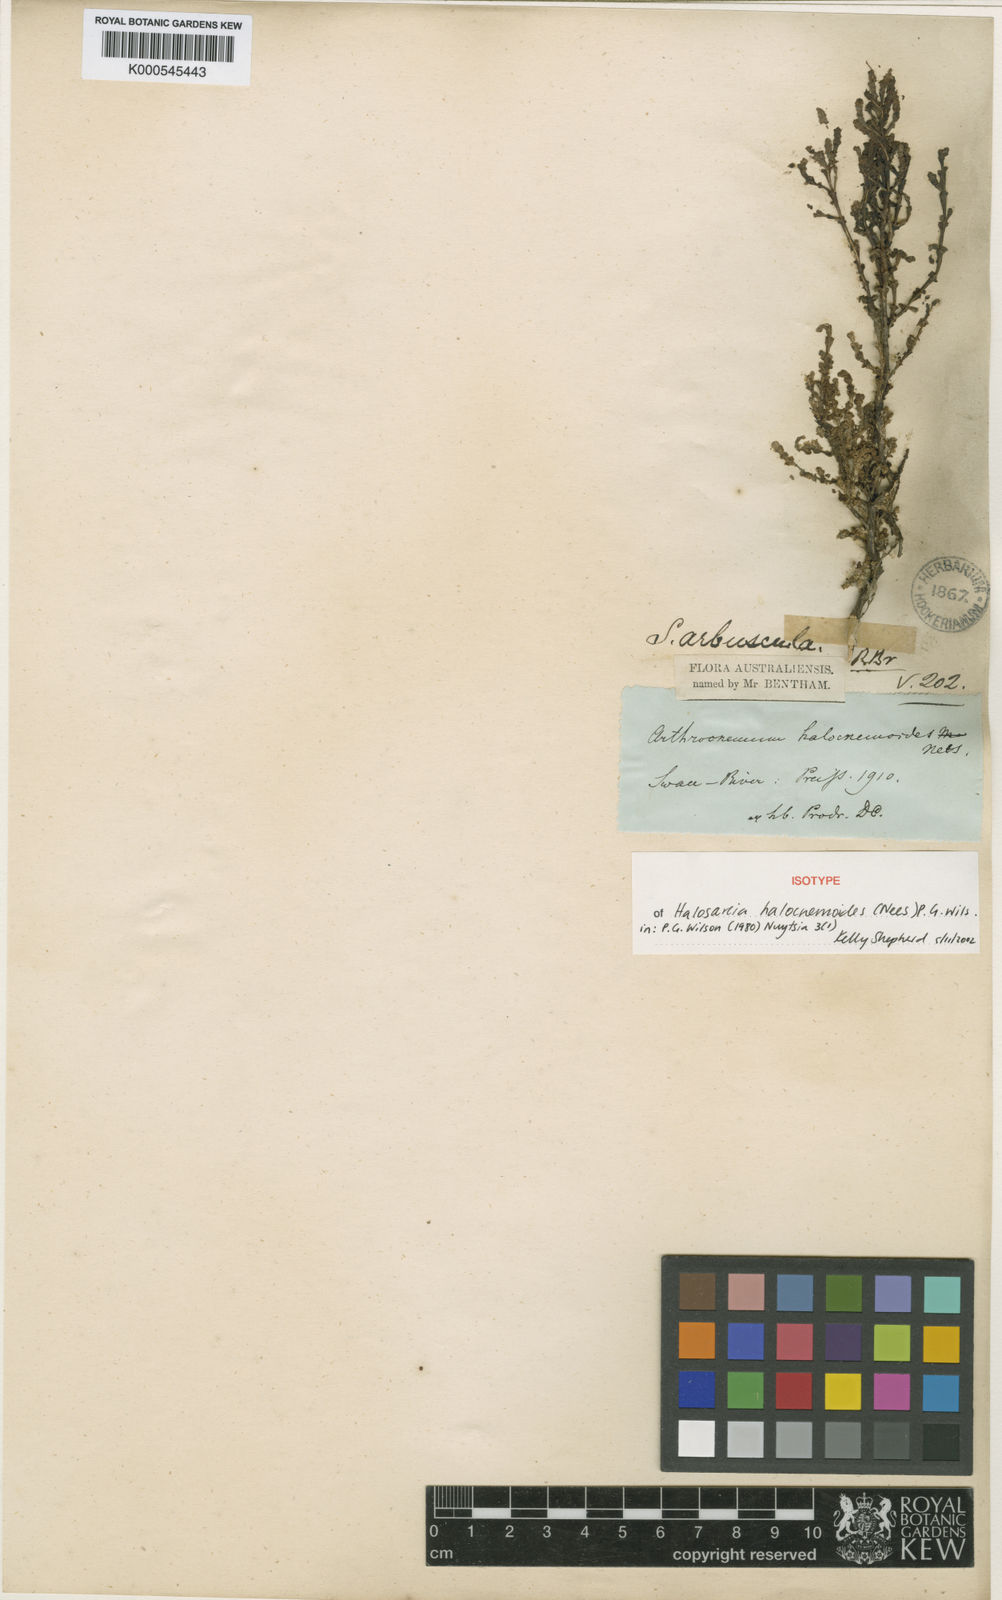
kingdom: Plantae
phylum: Tracheophyta
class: Magnoliopsida
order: Caryophyllales
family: Amaranthaceae
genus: Tecticornia
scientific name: Tecticornia halocnemoides
